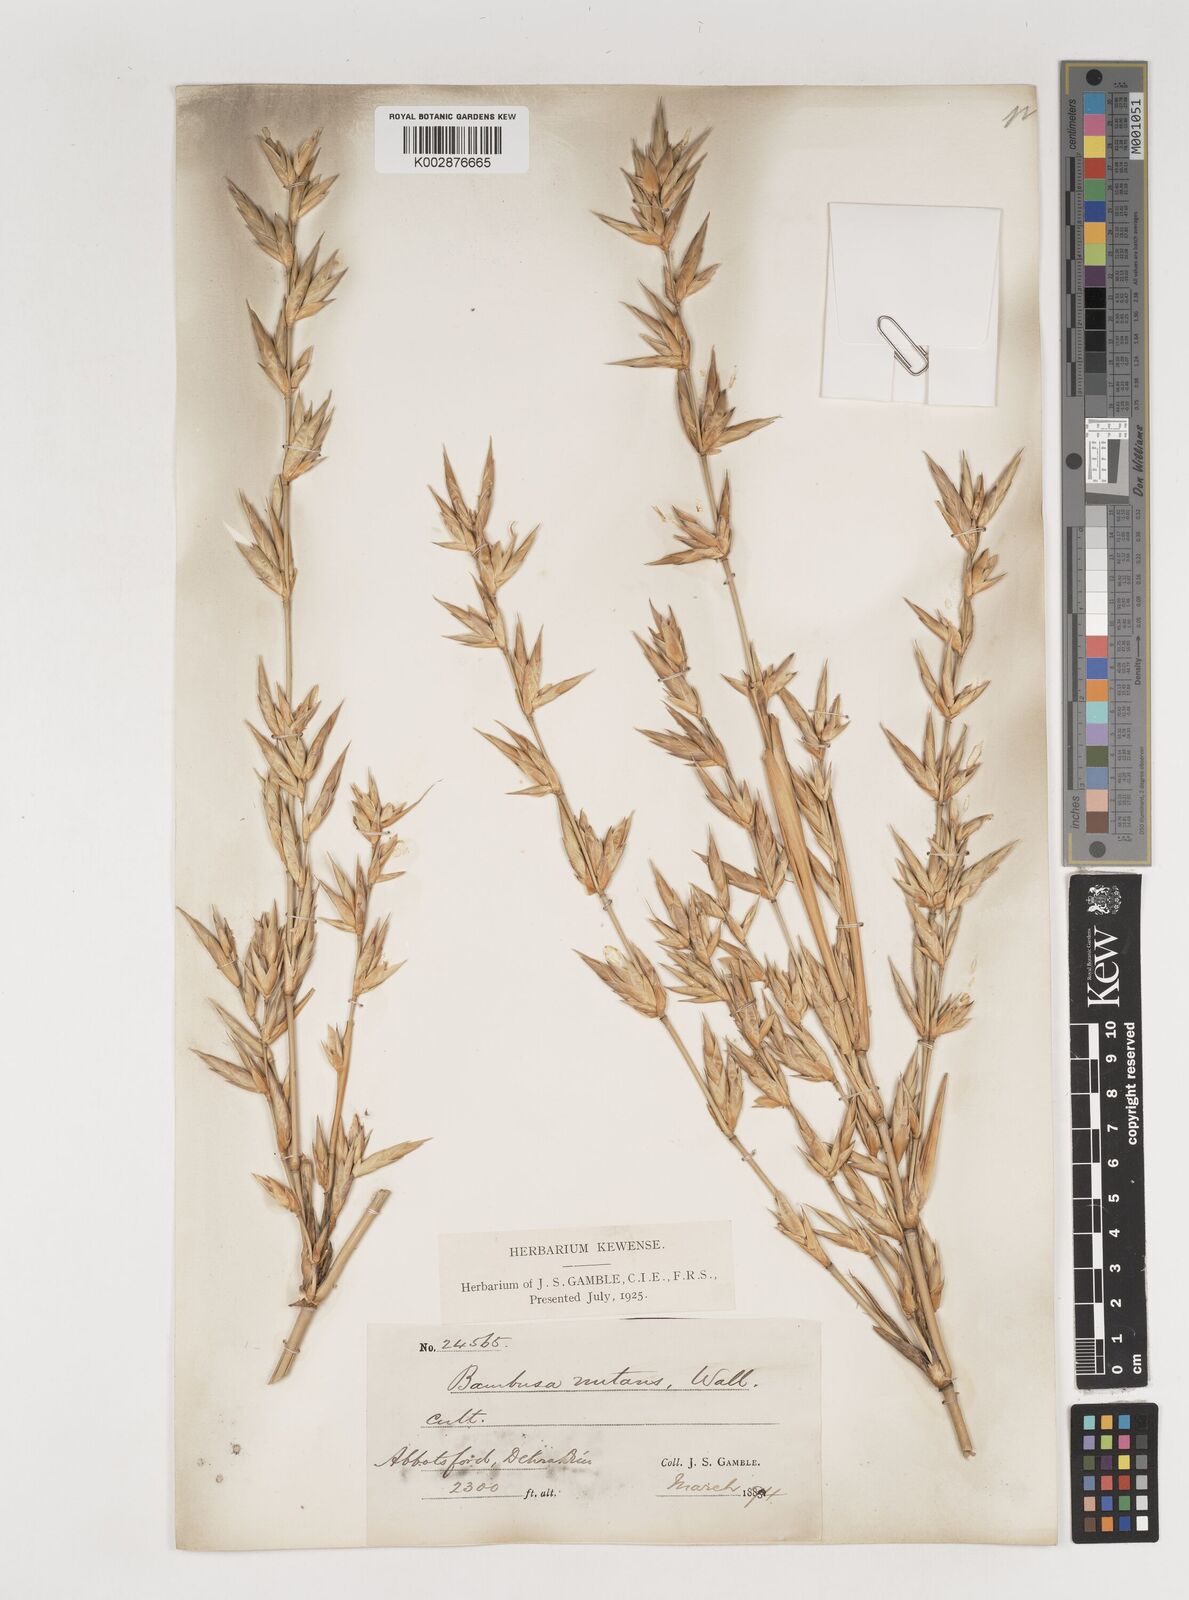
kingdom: Plantae
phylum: Tracheophyta
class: Liliopsida
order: Poales
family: Poaceae
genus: Bambusa
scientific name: Bambusa nutans
